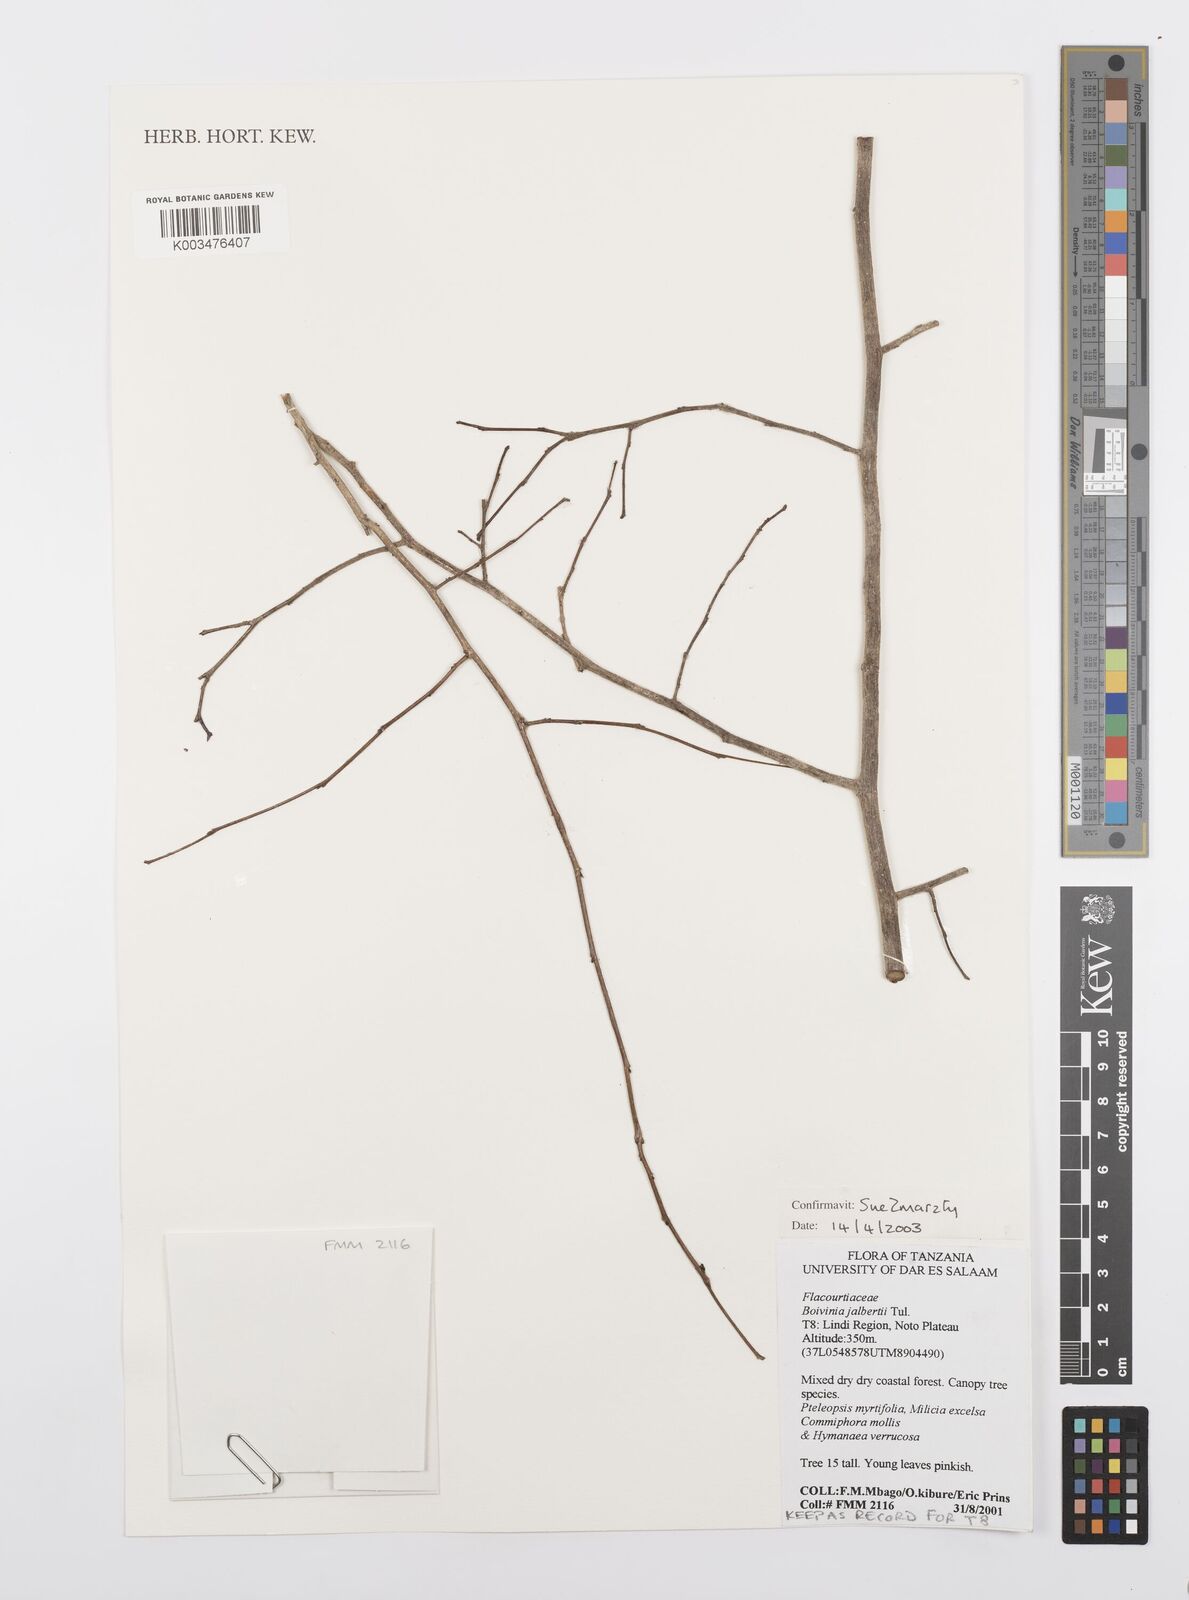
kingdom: Plantae
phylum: Tracheophyta
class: Magnoliopsida
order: Malpighiales
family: Salicaceae
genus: Bivinia
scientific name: Bivinia jalbertii
